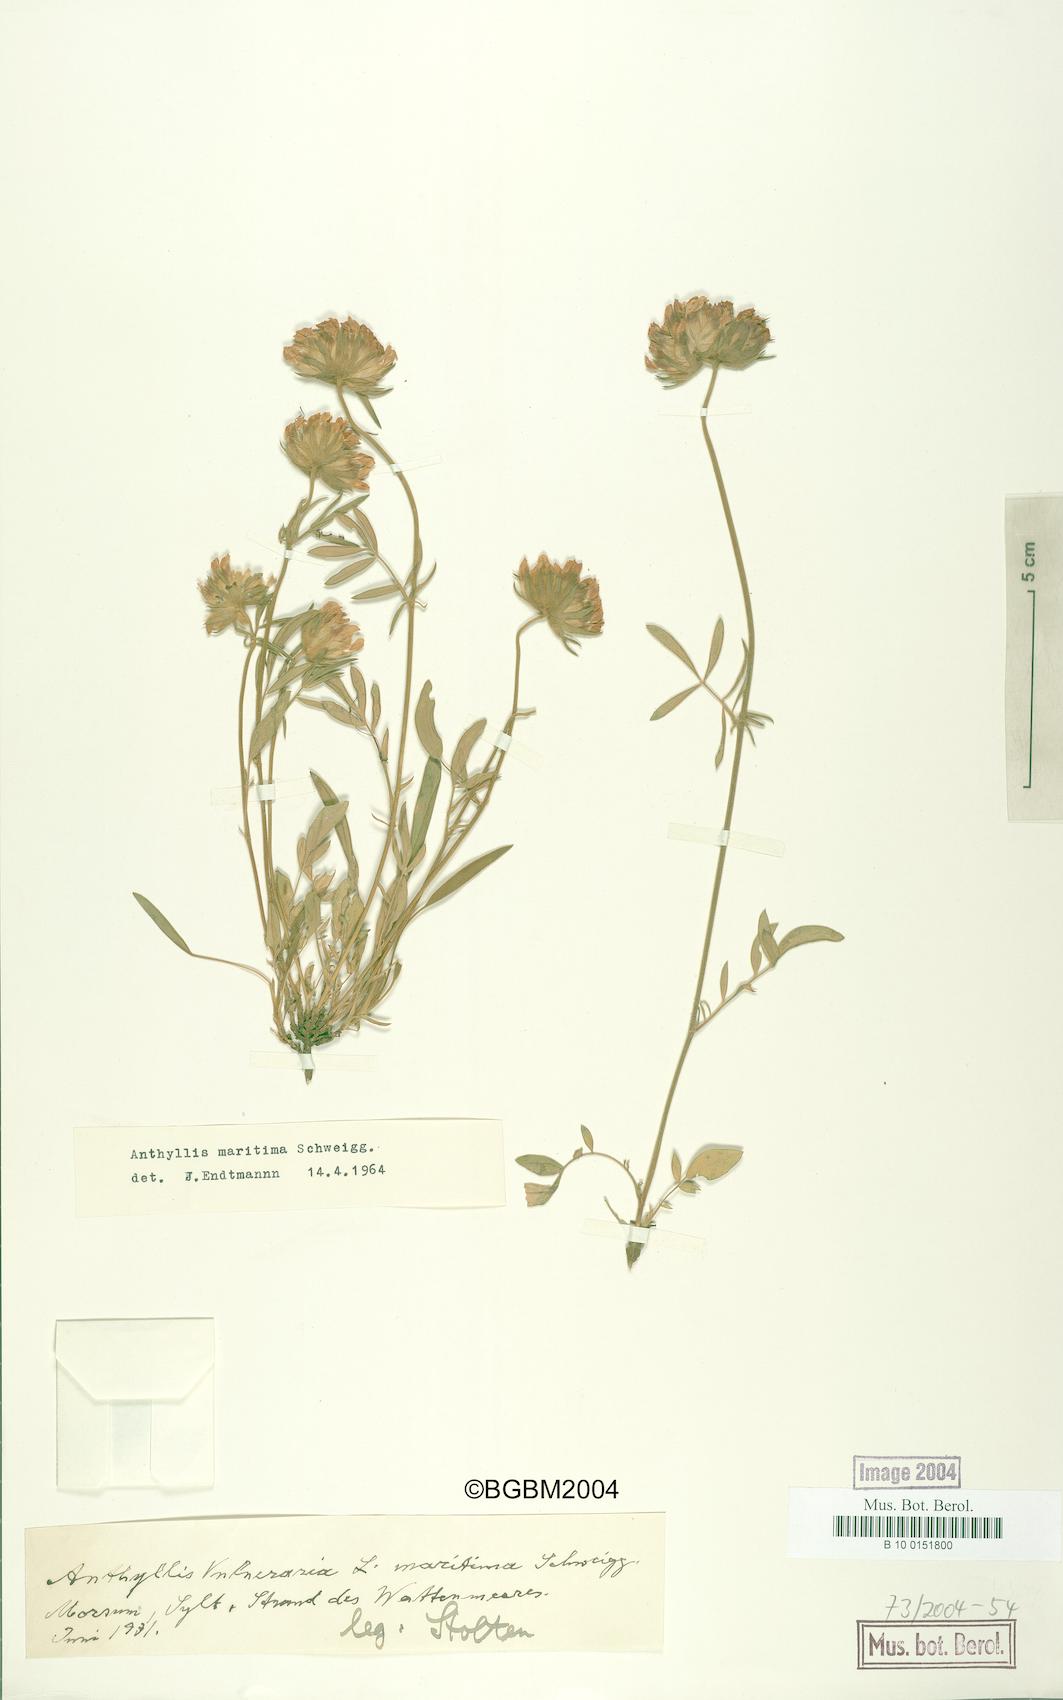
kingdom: Plantae
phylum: Tracheophyta
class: Magnoliopsida
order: Fabales
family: Fabaceae
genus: Anthyllis
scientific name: Anthyllis vulneraria
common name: Kidney vetch
